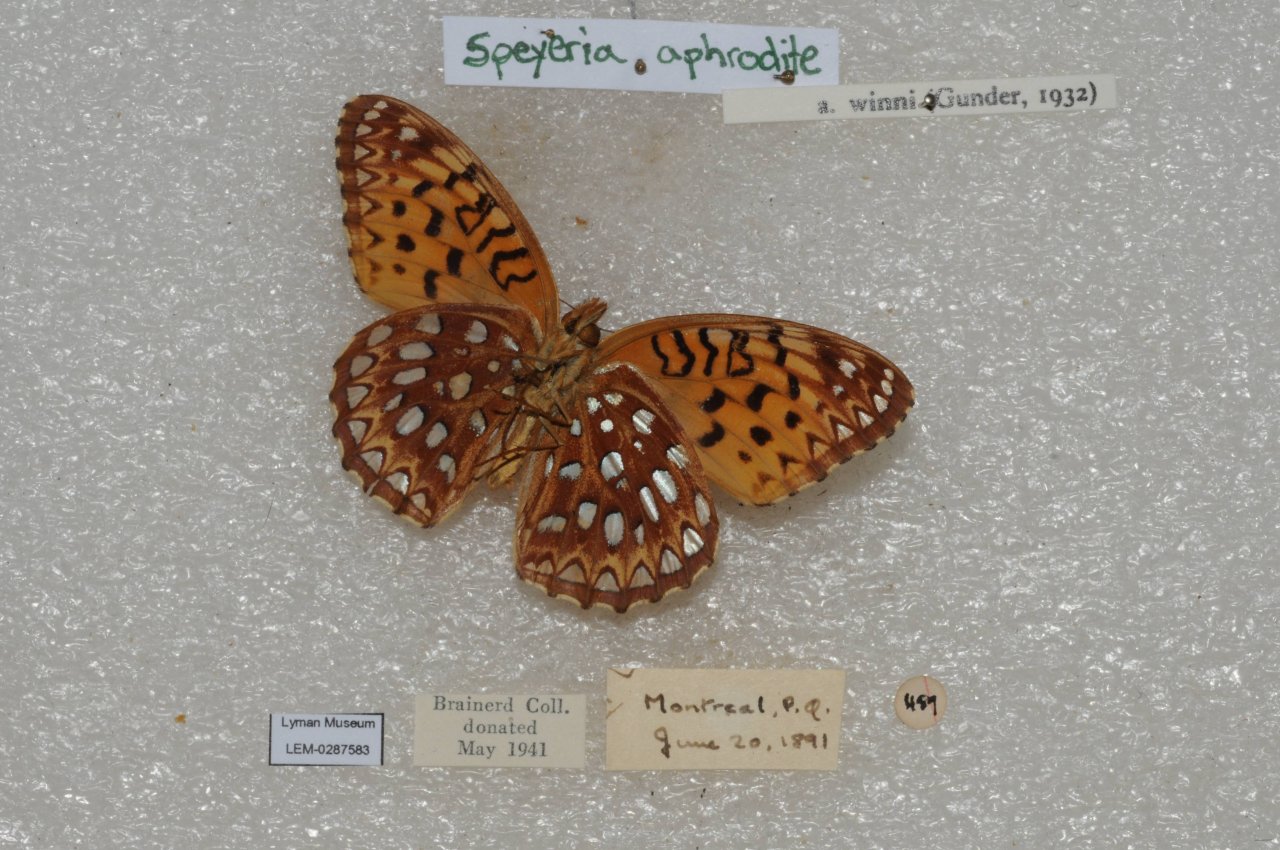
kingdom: Animalia
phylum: Arthropoda
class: Insecta
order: Lepidoptera
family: Nymphalidae
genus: Speyeria
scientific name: Speyeria aphrodite
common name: Aphrodite Fritillary
